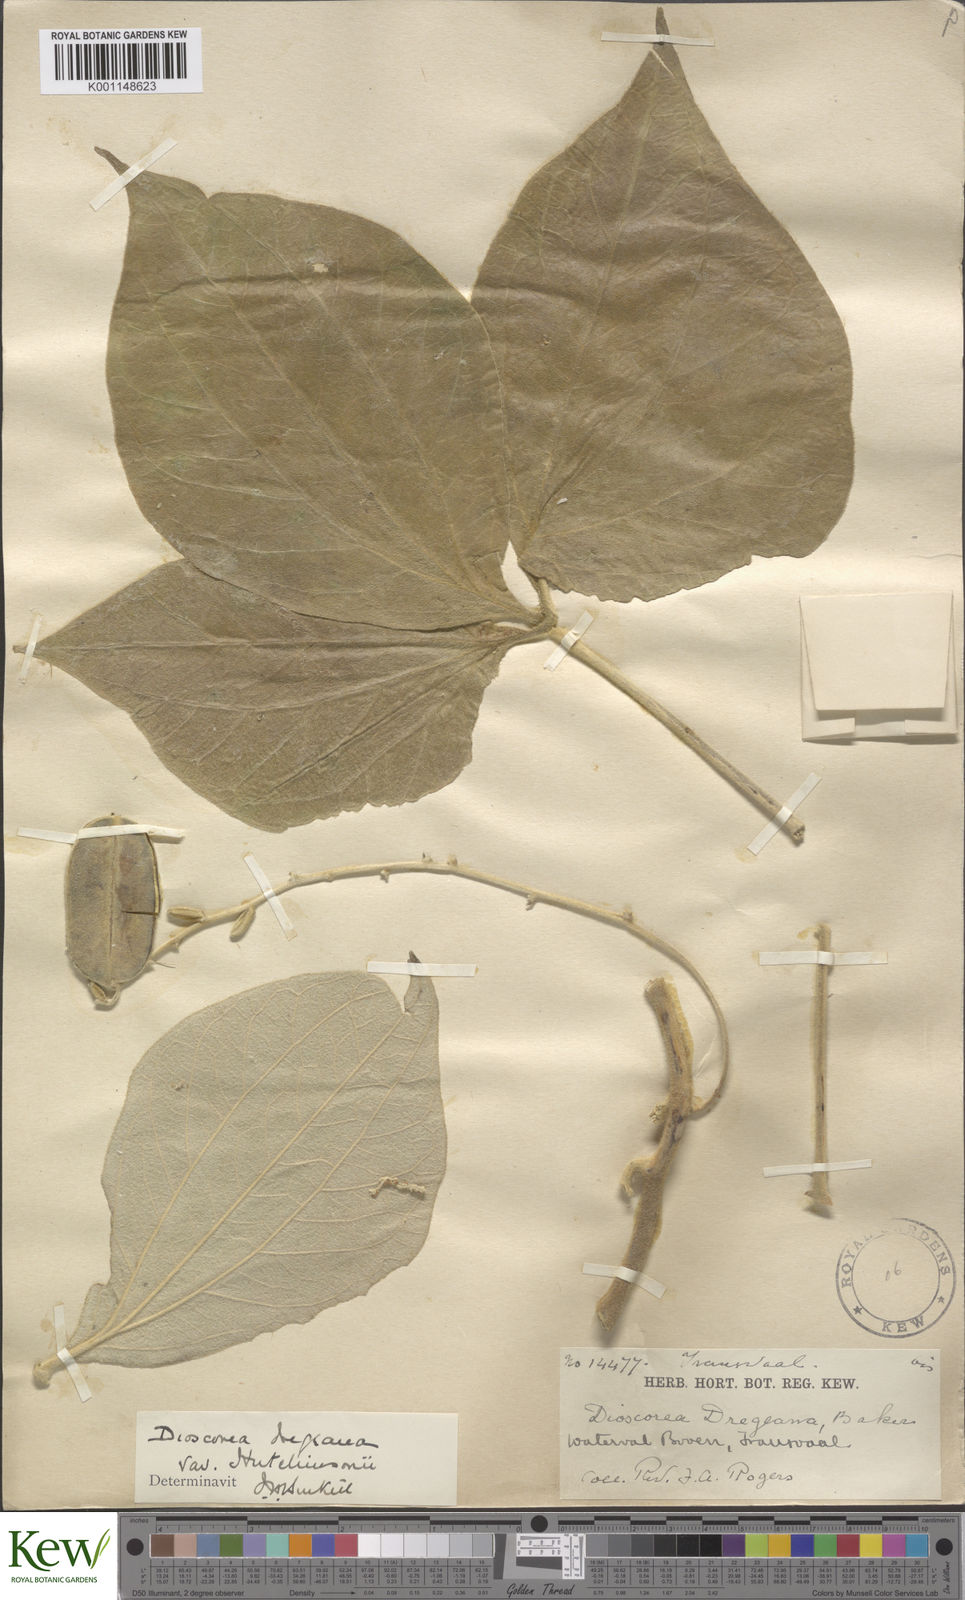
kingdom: Plantae
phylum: Tracheophyta
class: Liliopsida
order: Dioscoreales
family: Dioscoreaceae
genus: Dioscorea
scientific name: Dioscorea dregeana
